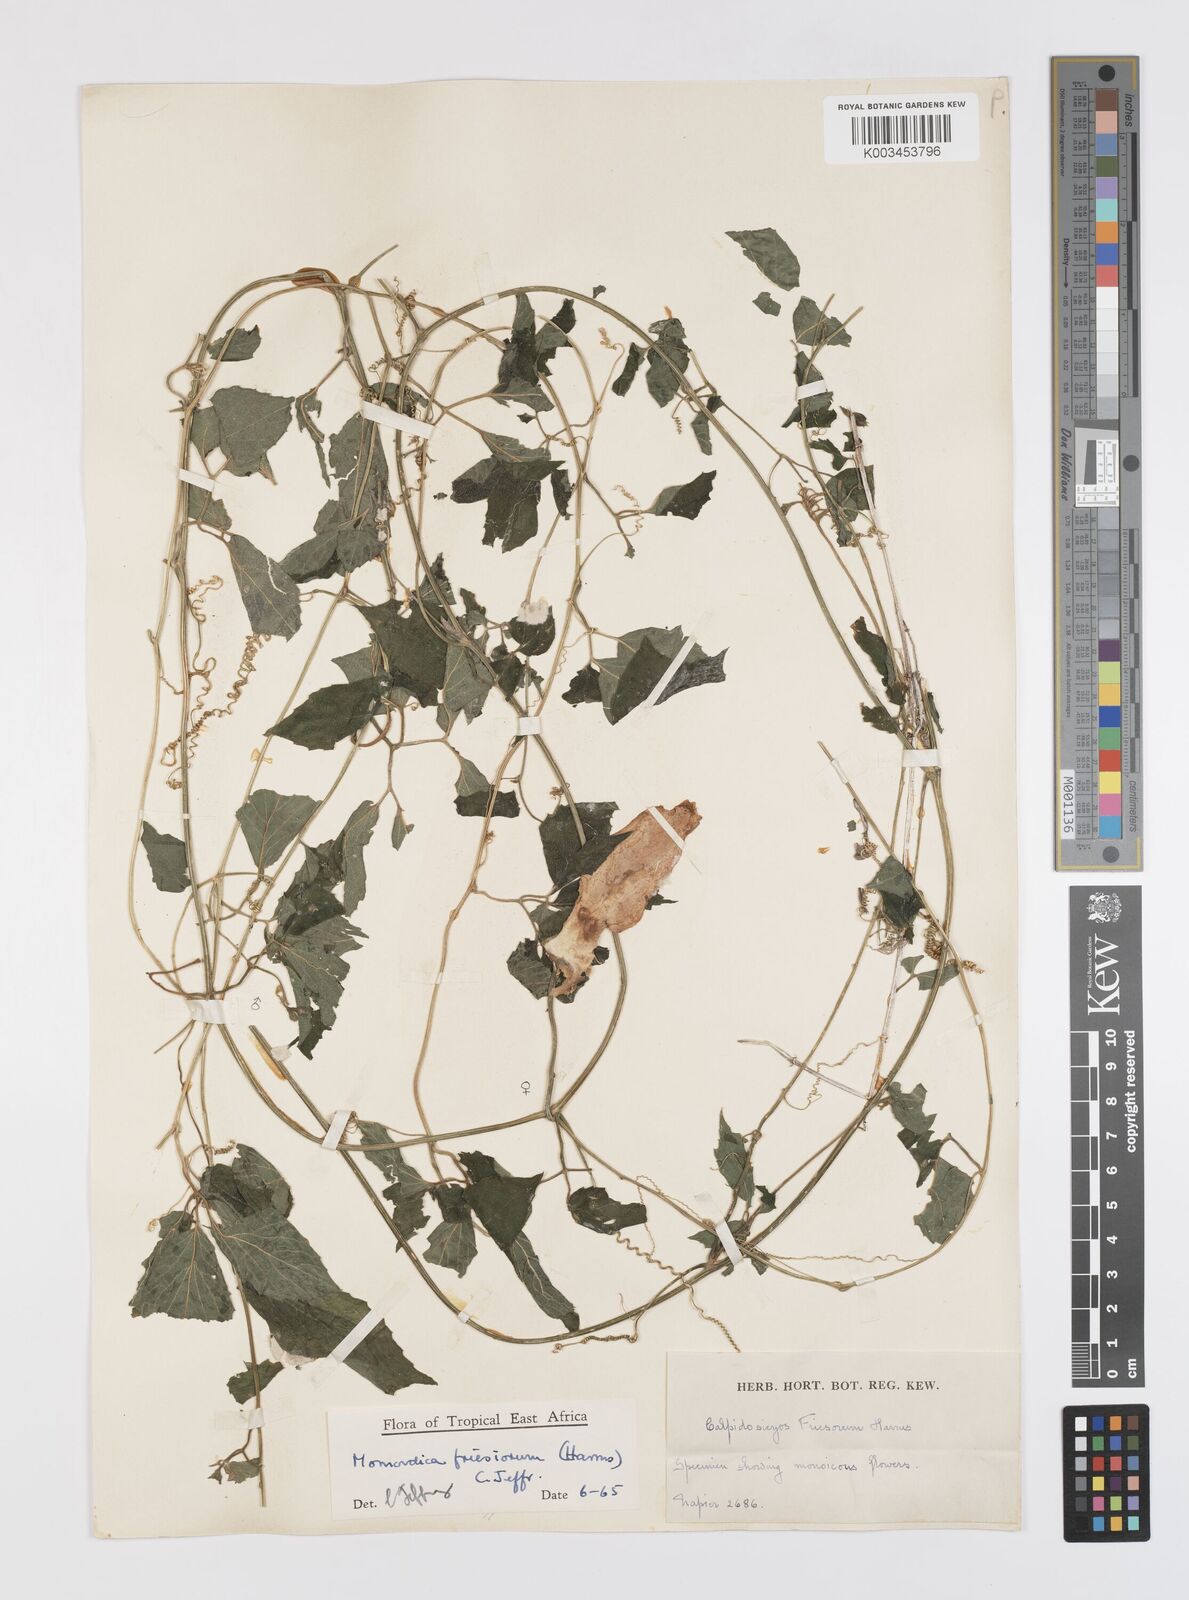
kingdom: Plantae
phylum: Tracheophyta
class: Magnoliopsida
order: Cucurbitales
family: Cucurbitaceae
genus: Momordica
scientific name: Momordica friesiorum
